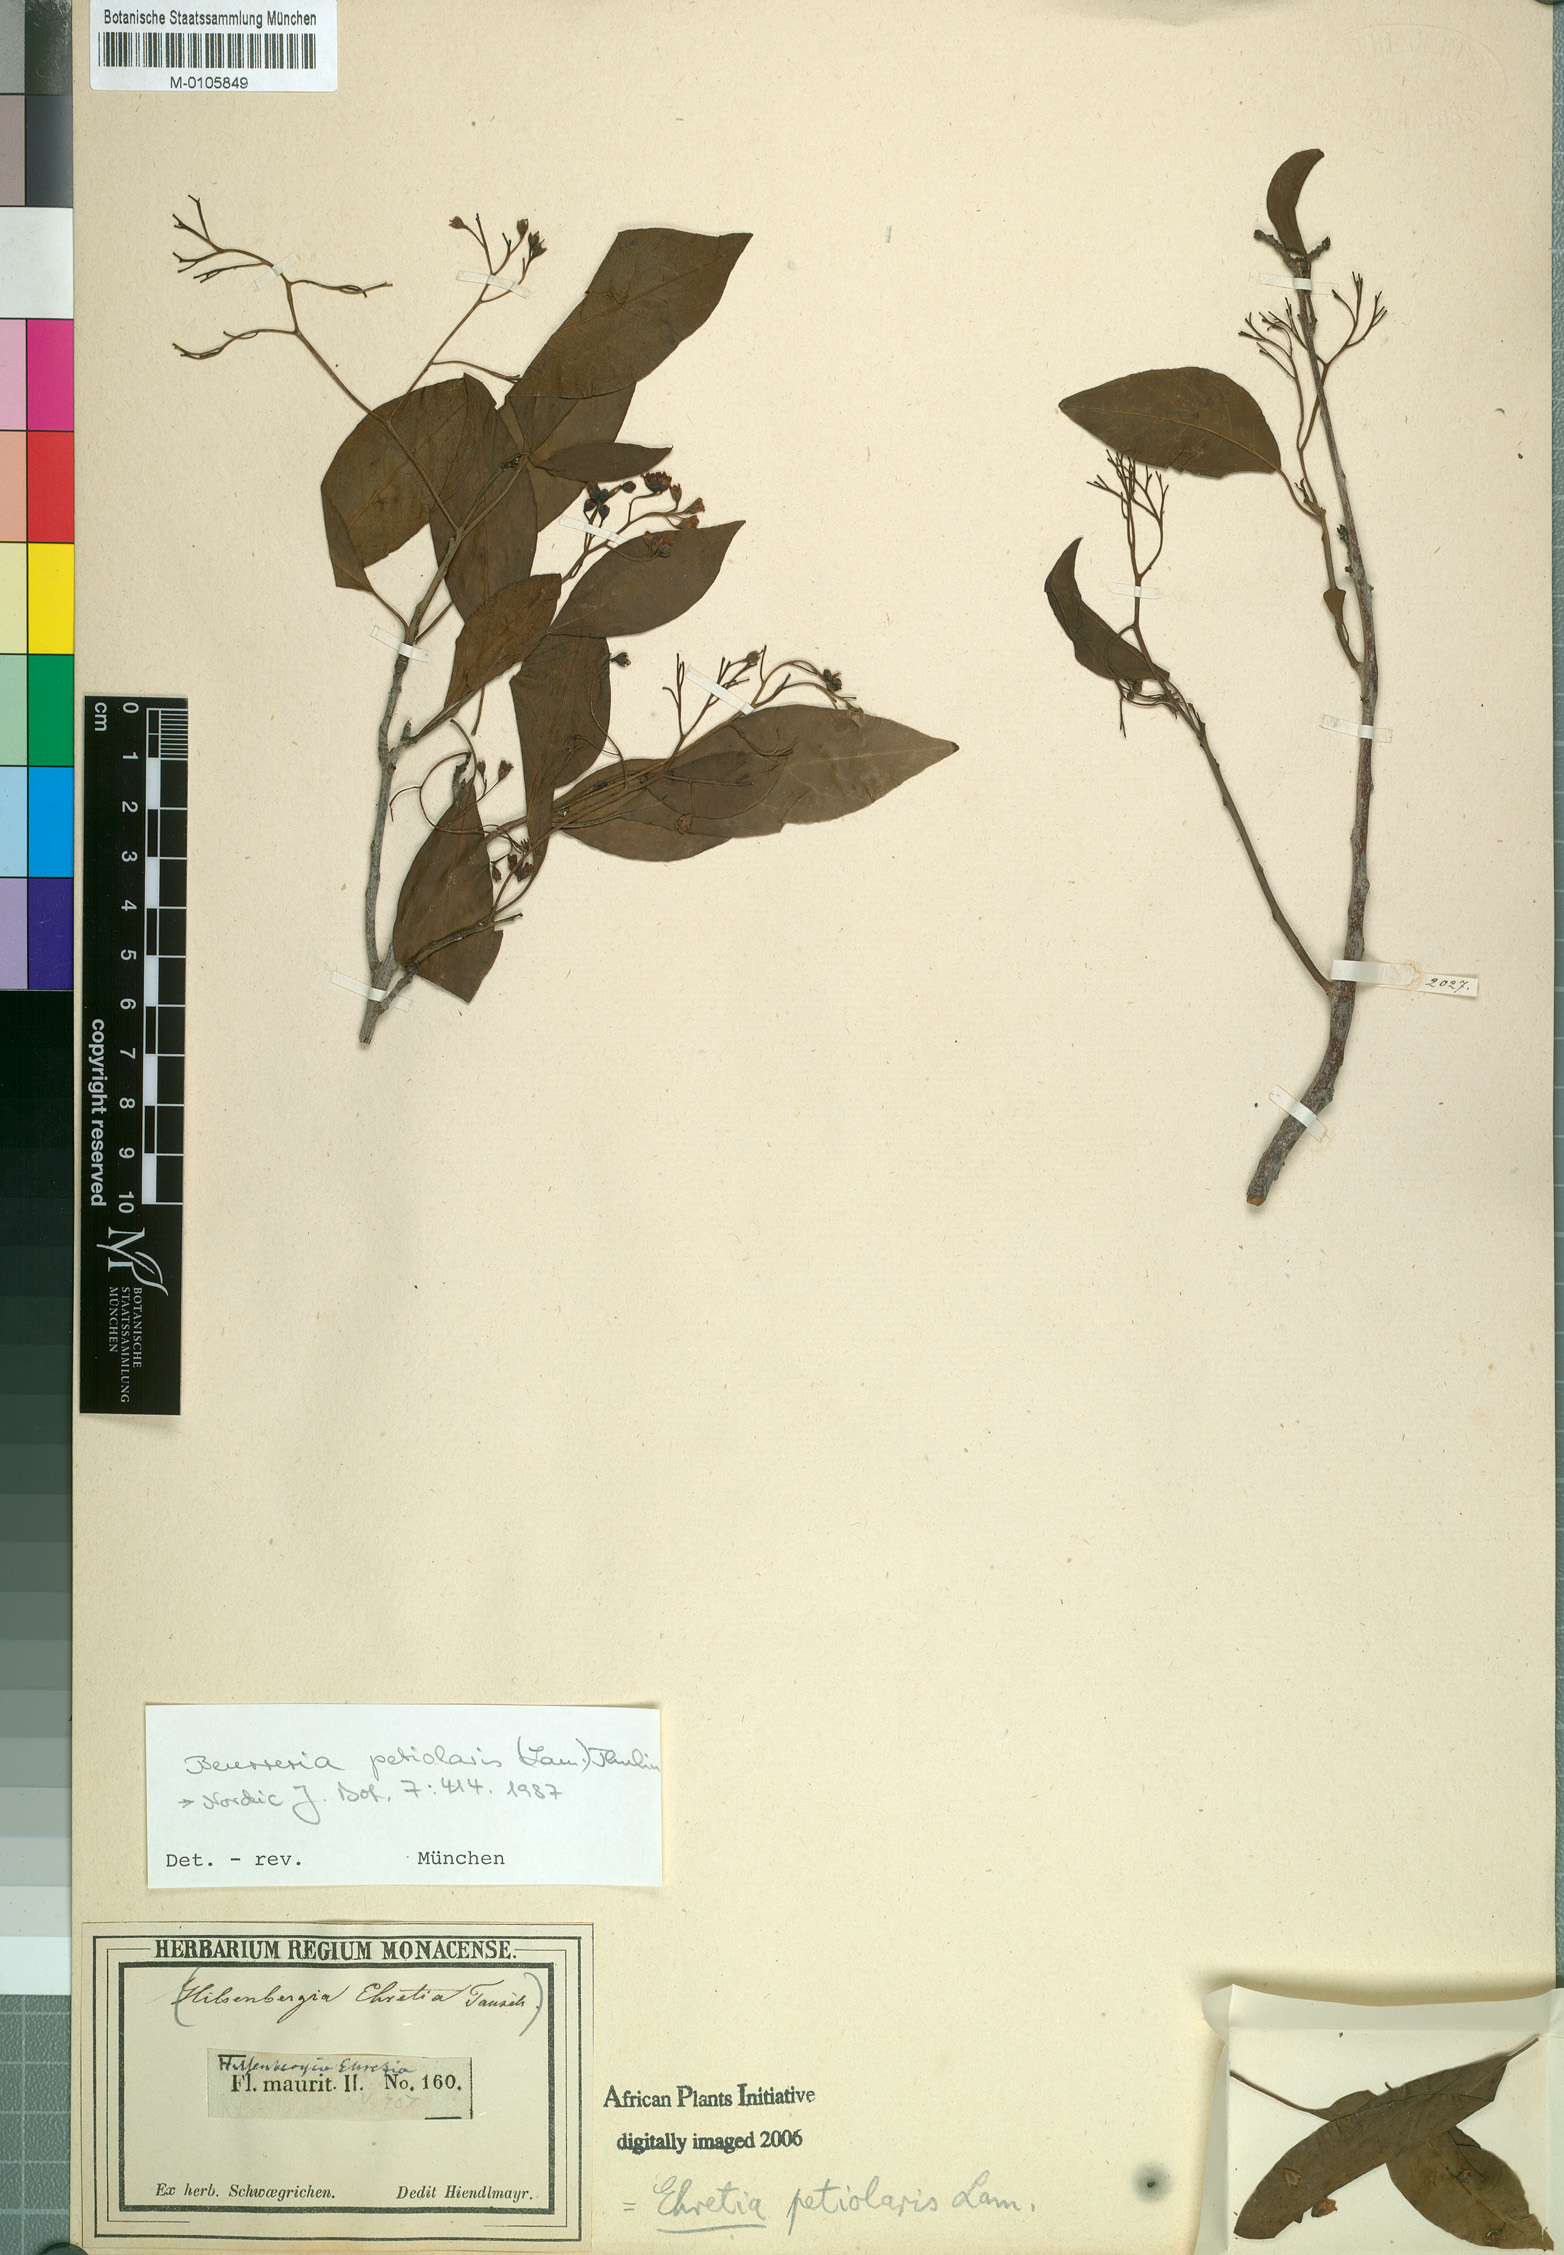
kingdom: Plantae
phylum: Tracheophyta
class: Magnoliopsida
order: Boraginales
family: Ehretiaceae
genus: Bourreria
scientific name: Bourreria petiolaris
